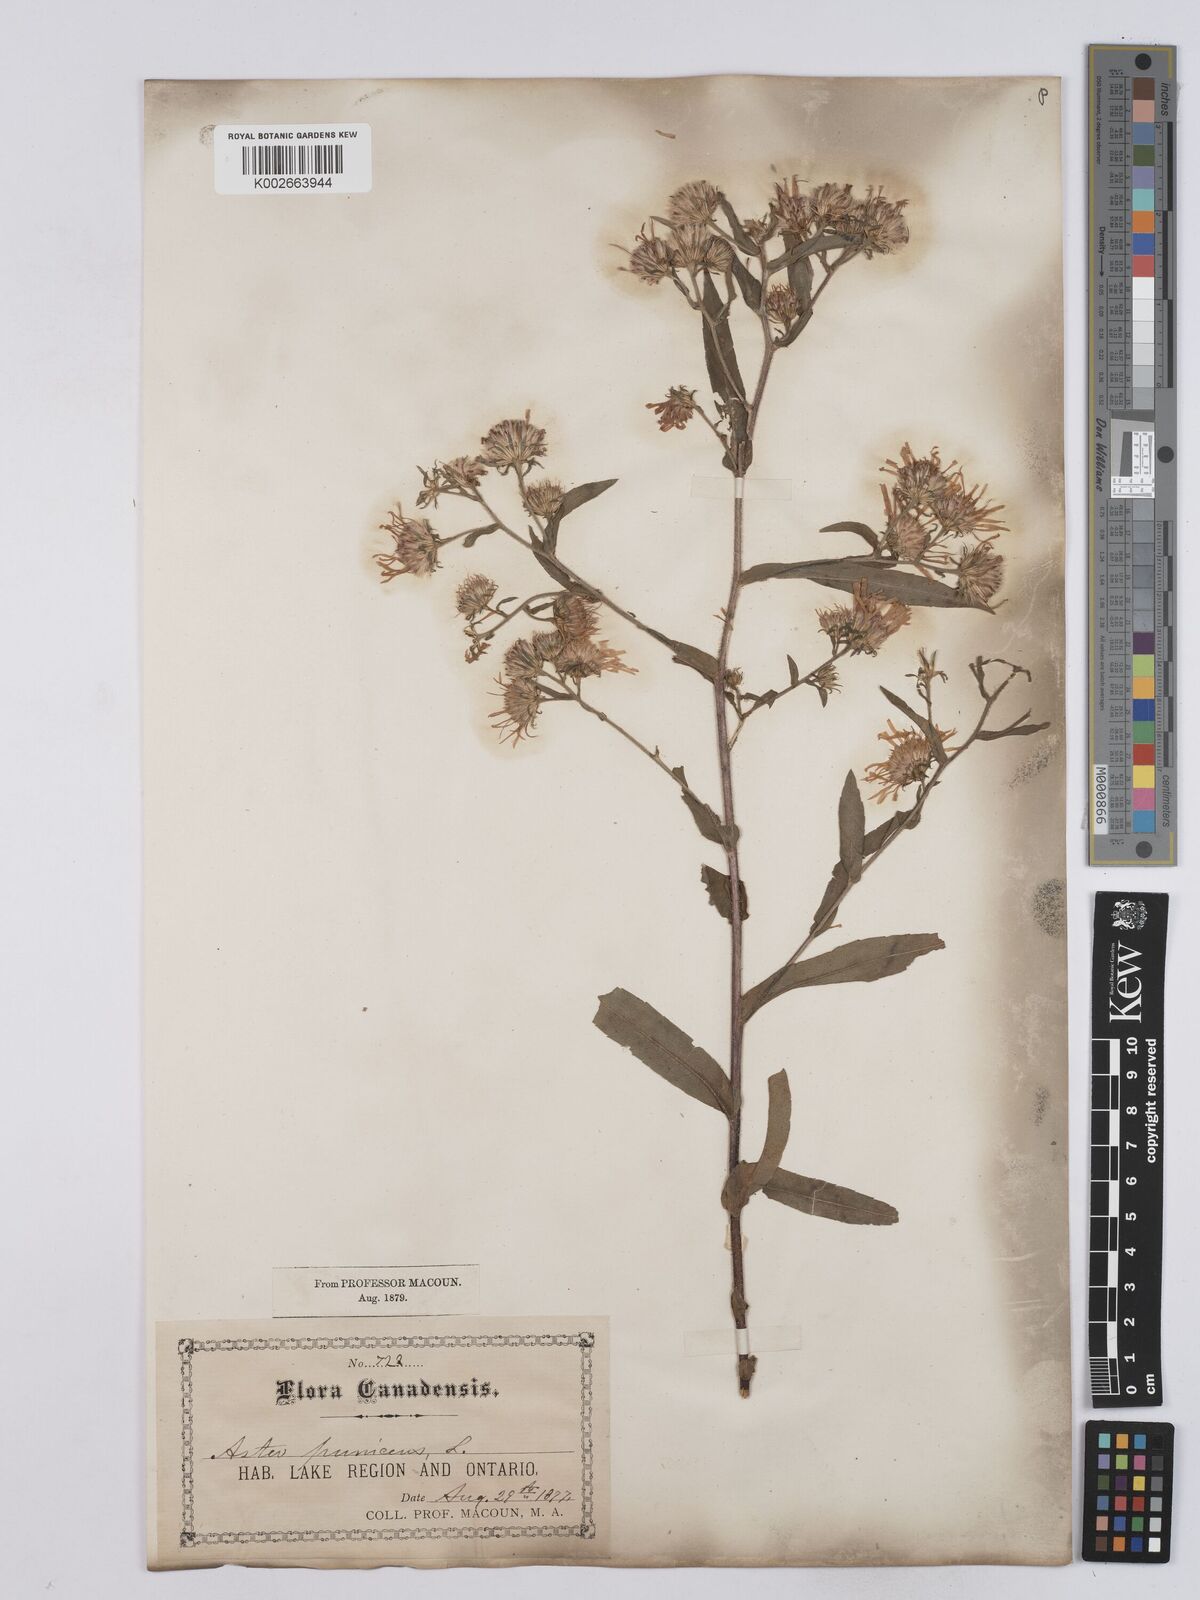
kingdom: Plantae
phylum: Tracheophyta
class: Magnoliopsida
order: Asterales
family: Asteraceae
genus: Symphyotrichum
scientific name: Symphyotrichum puniceum
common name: Bog aster
